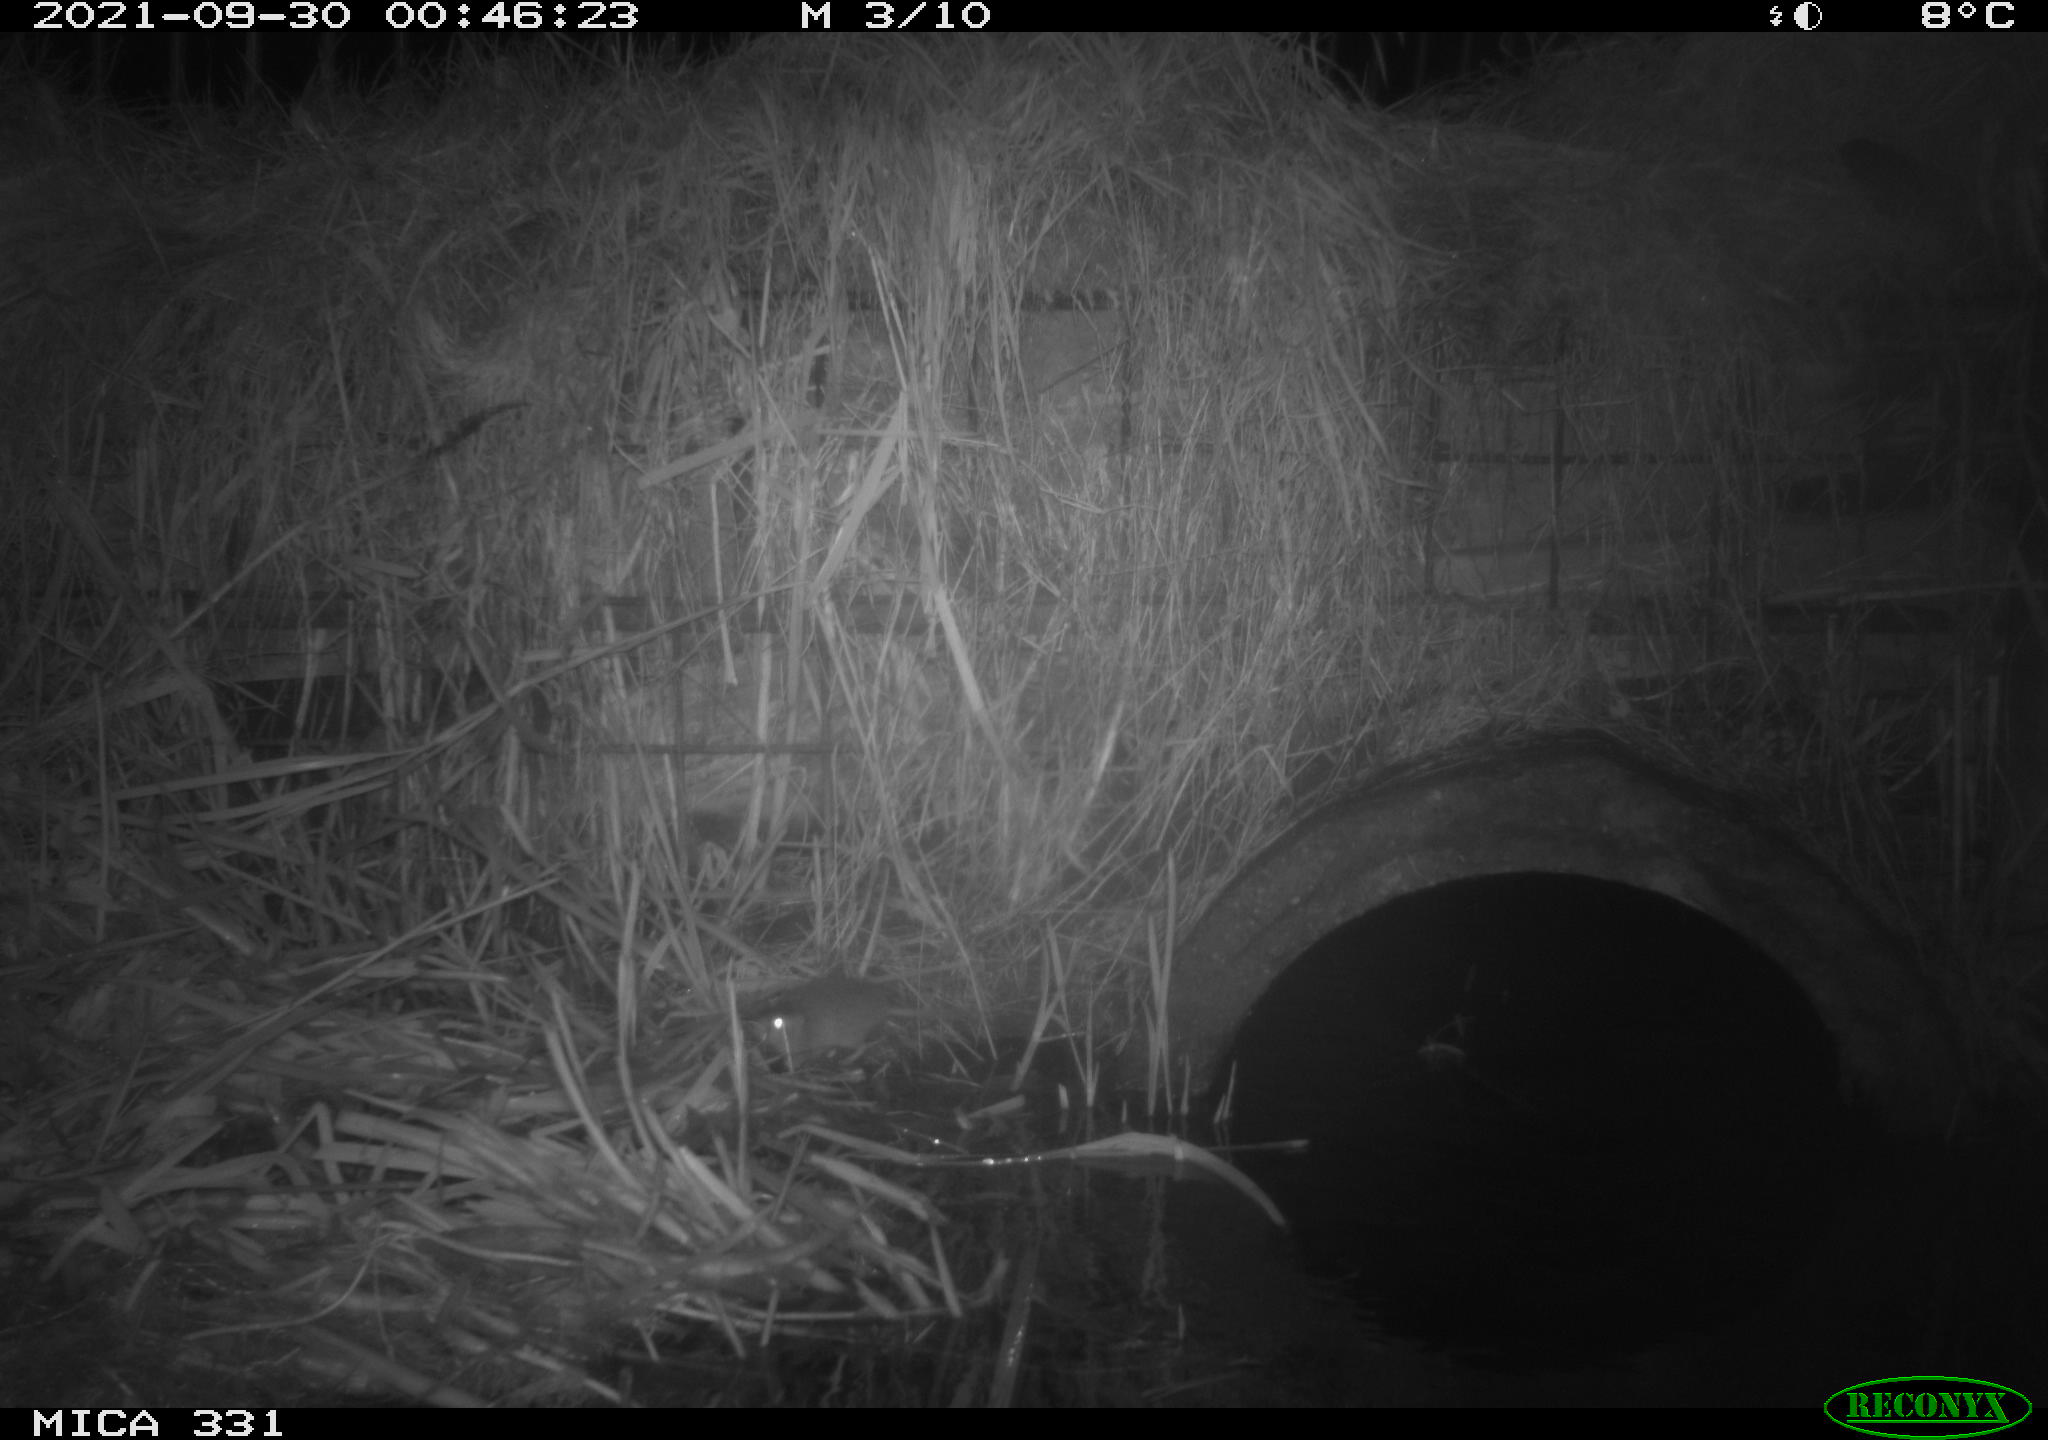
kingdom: Animalia
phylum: Chordata
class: Mammalia
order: Rodentia
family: Muridae
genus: Rattus
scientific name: Rattus norvegicus
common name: Brown rat
